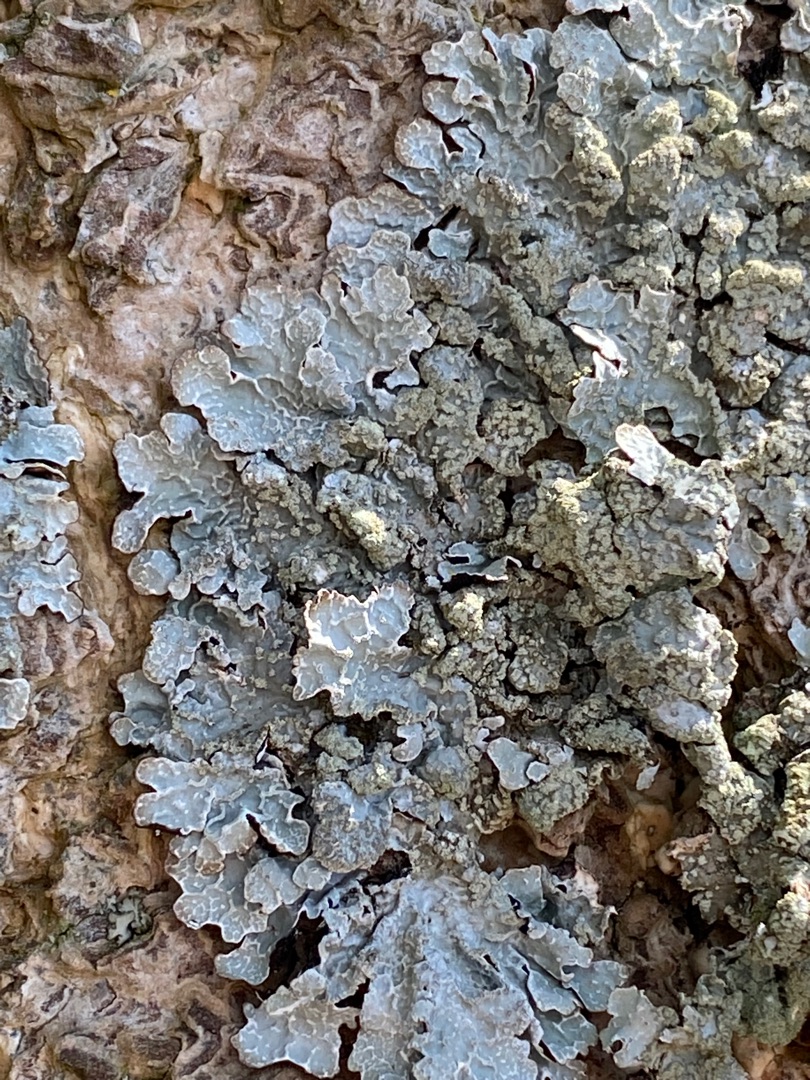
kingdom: Fungi
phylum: Ascomycota
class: Lecanoromycetes
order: Lecanorales
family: Parmeliaceae
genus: Parmelia
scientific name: Parmelia sulcata
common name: Rynket skållav
